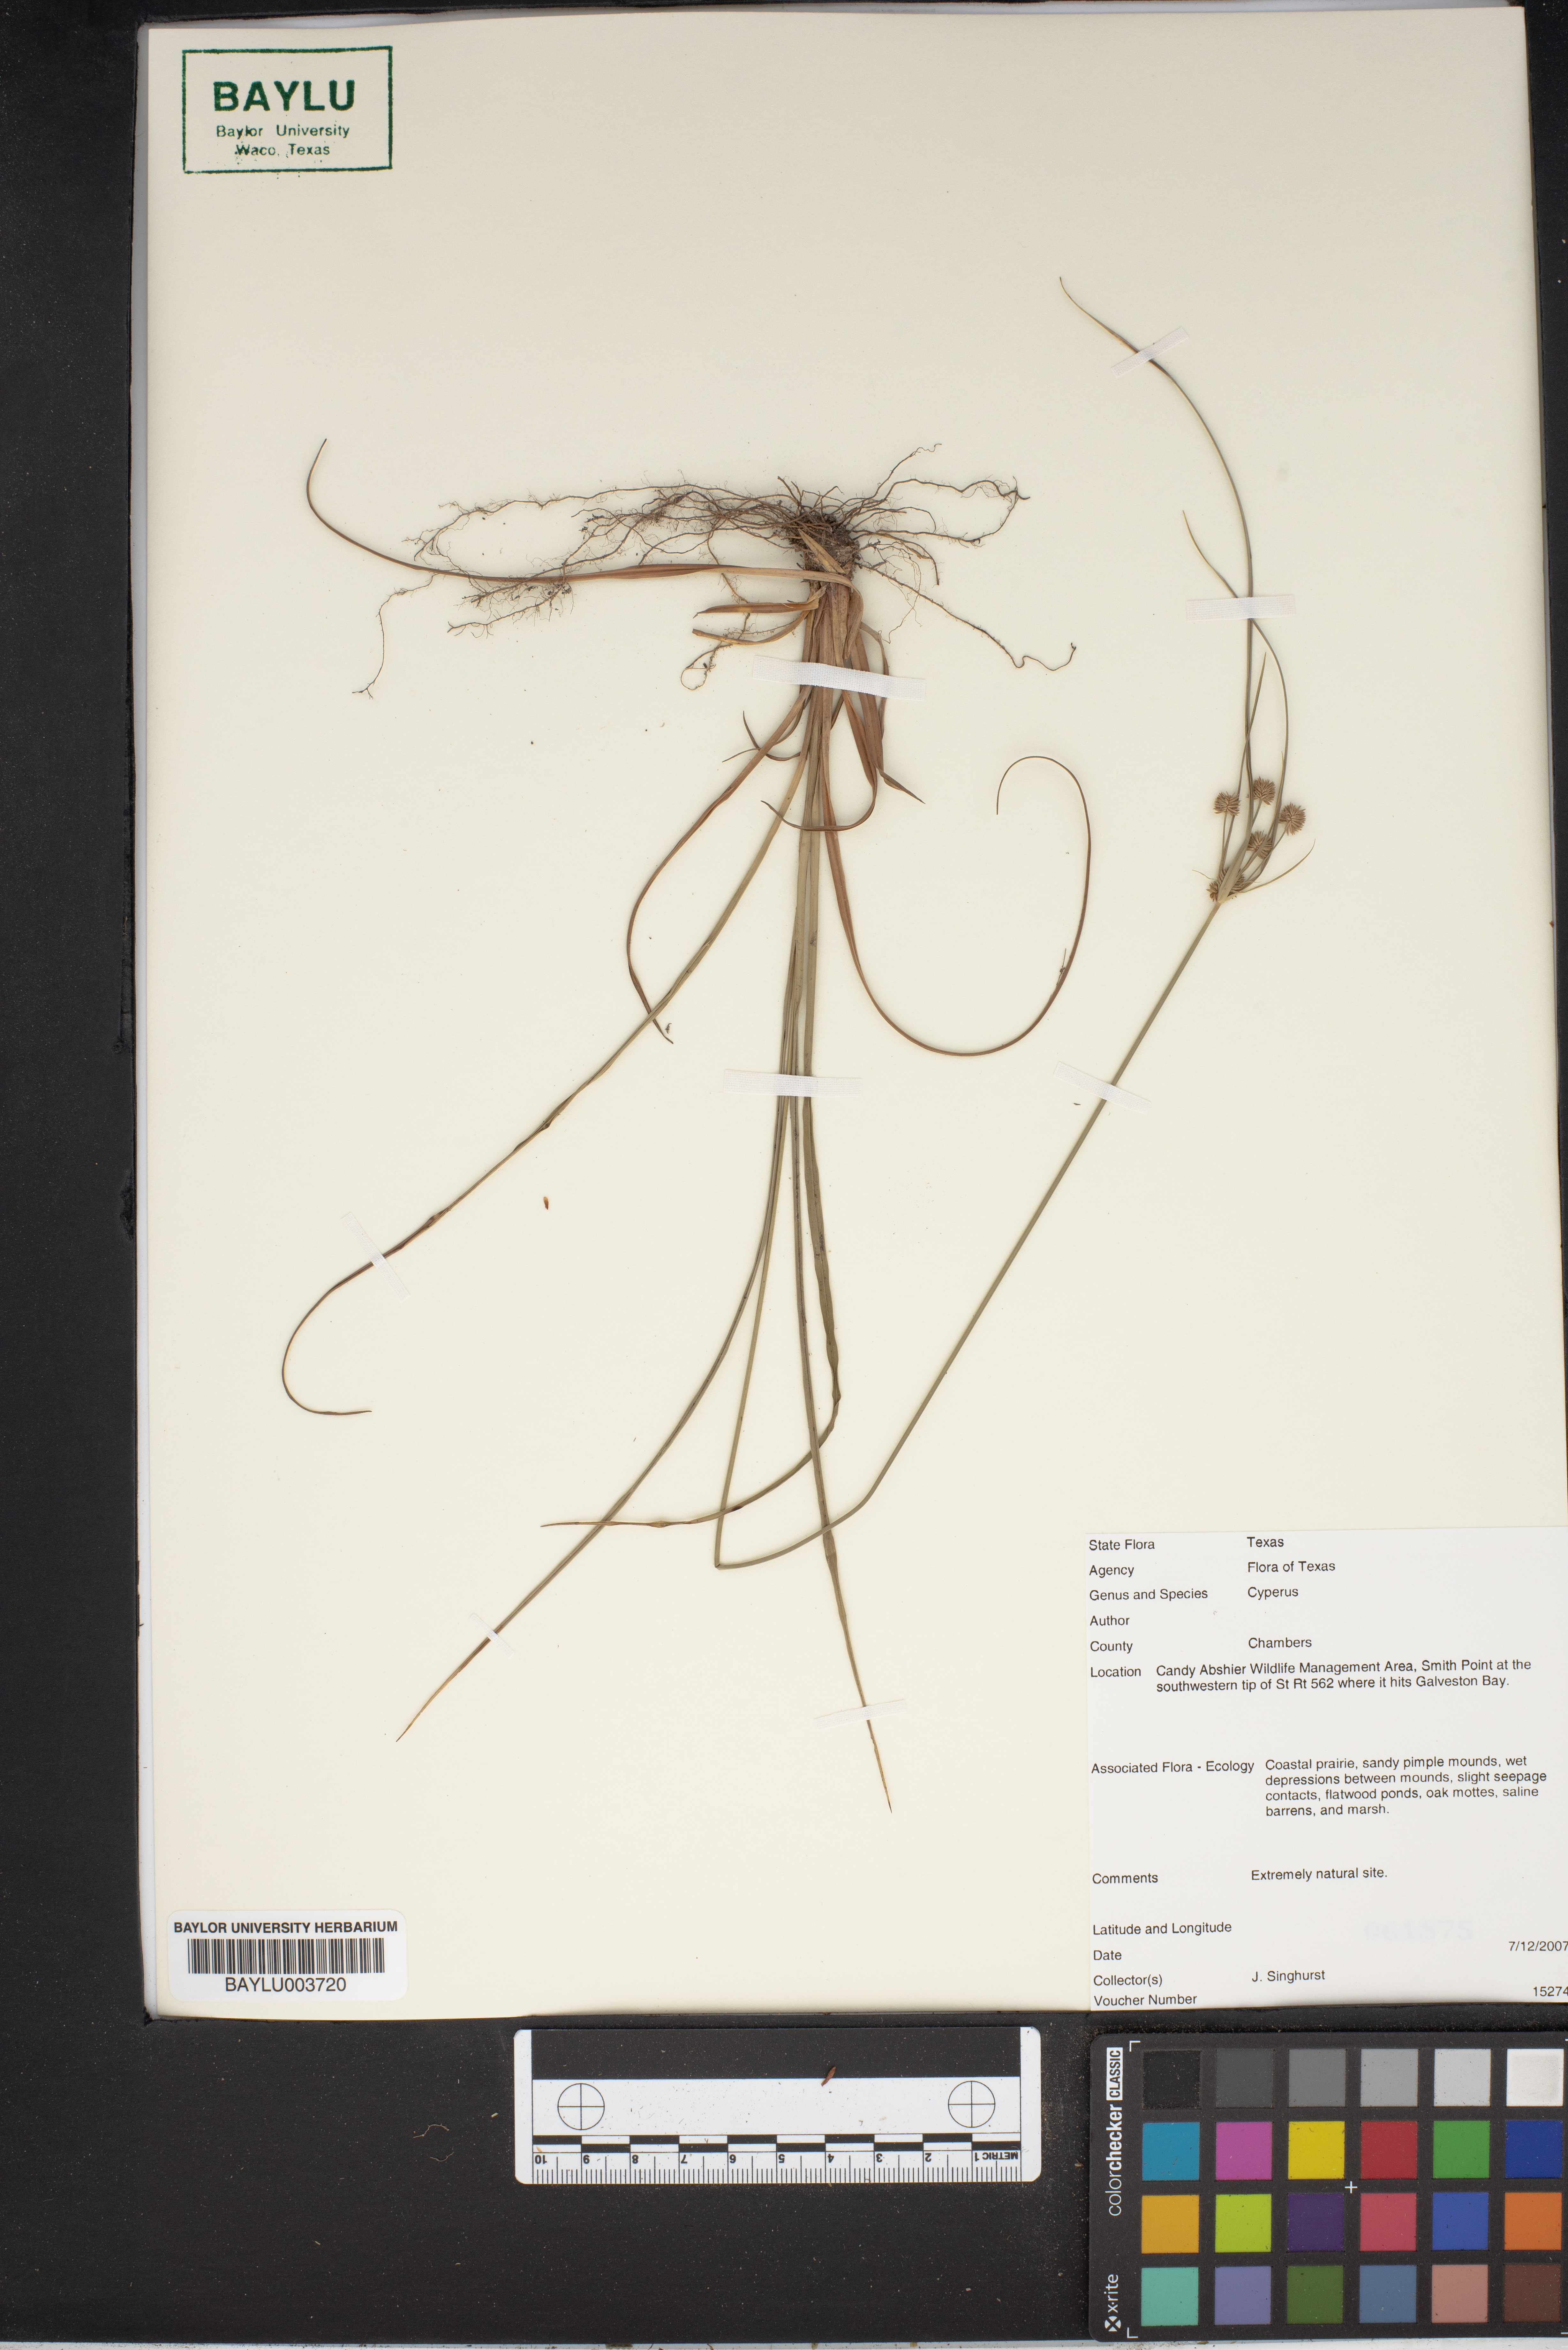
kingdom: Plantae
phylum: Tracheophyta
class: Liliopsida
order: Poales
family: Cyperaceae
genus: Cyperus
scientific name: Cyperus
